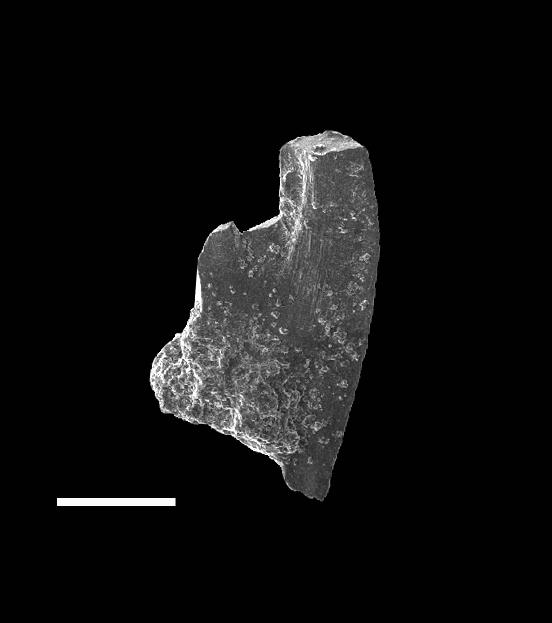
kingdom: Animalia
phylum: Chordata
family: Balognathidae
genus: Pterospathodus
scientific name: Pterospathodus eopennatus
